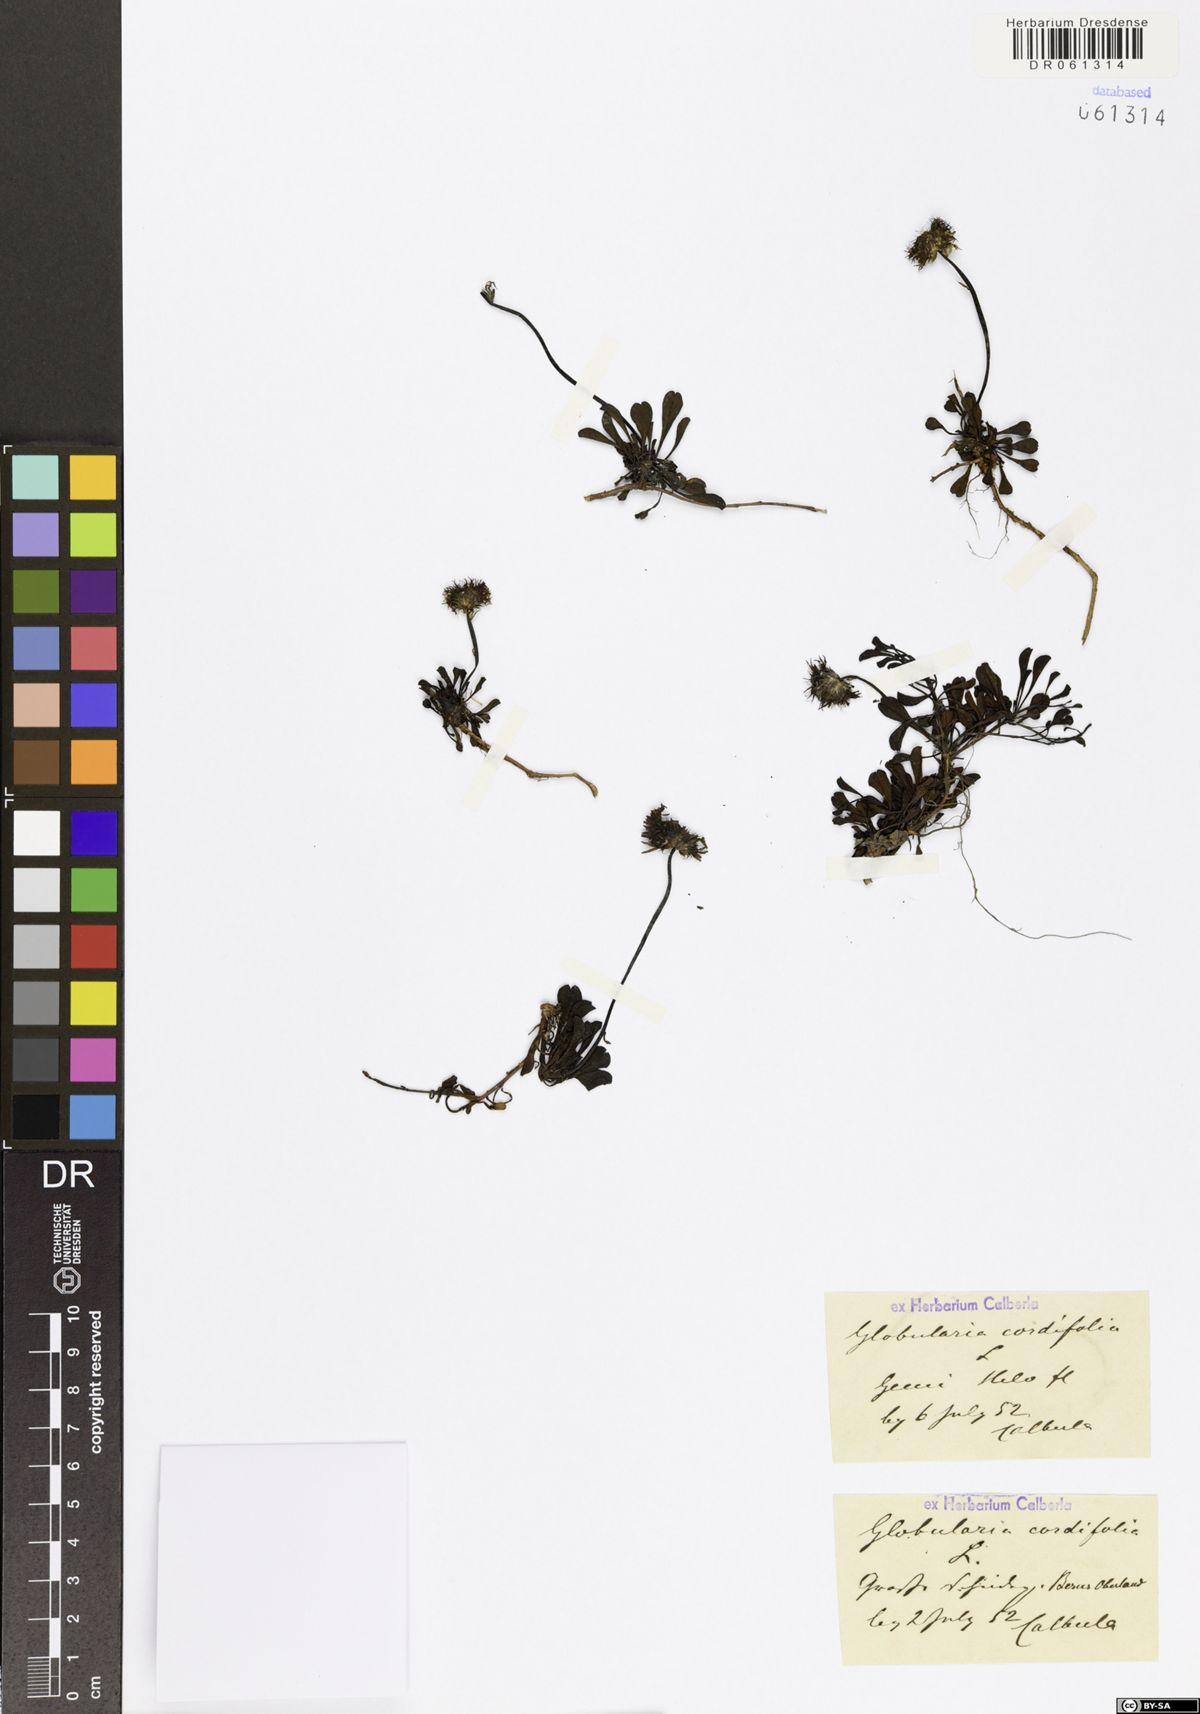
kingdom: Plantae
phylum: Tracheophyta
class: Magnoliopsida
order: Lamiales
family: Plantaginaceae
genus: Globularia
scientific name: Globularia cordifolia
